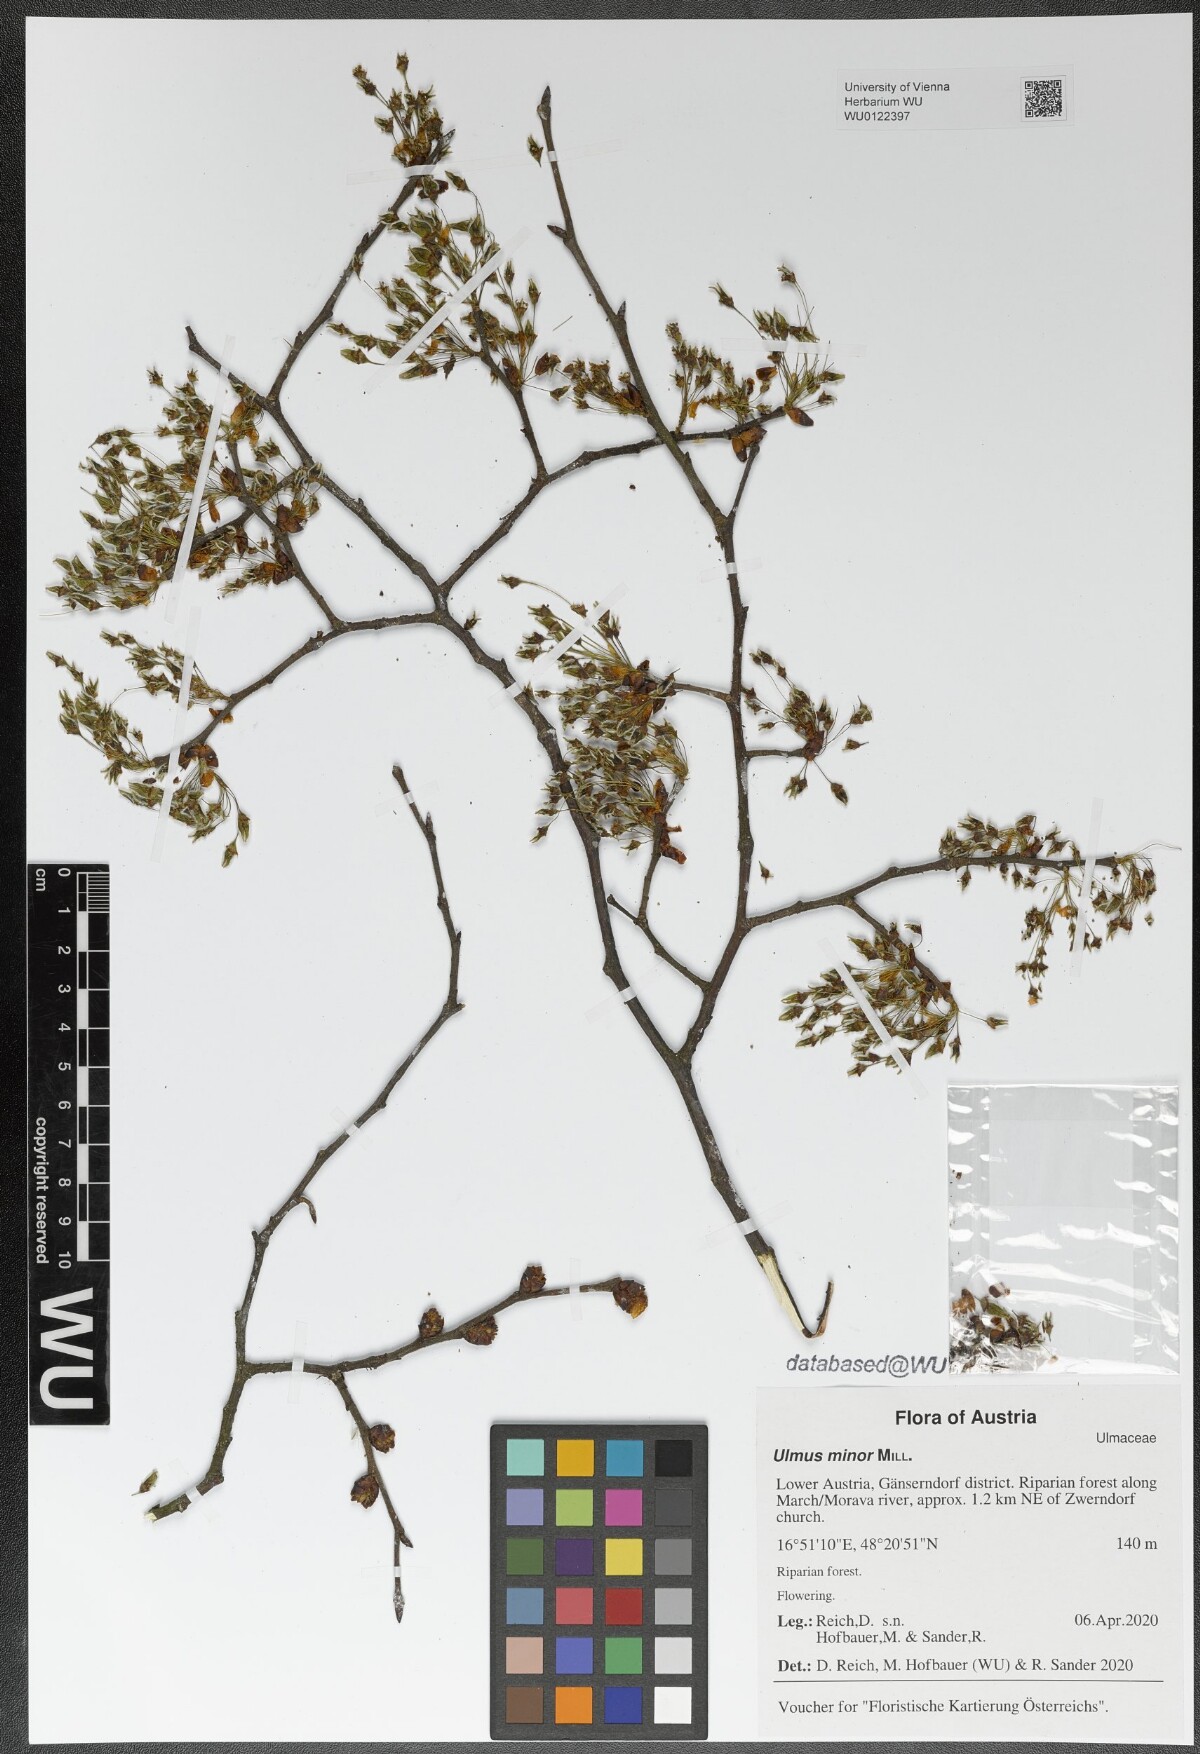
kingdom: Plantae
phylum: Tracheophyta
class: Magnoliopsida
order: Rosales
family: Ulmaceae
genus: Ulmus
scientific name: Ulmus minor
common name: Small-leaved elm
